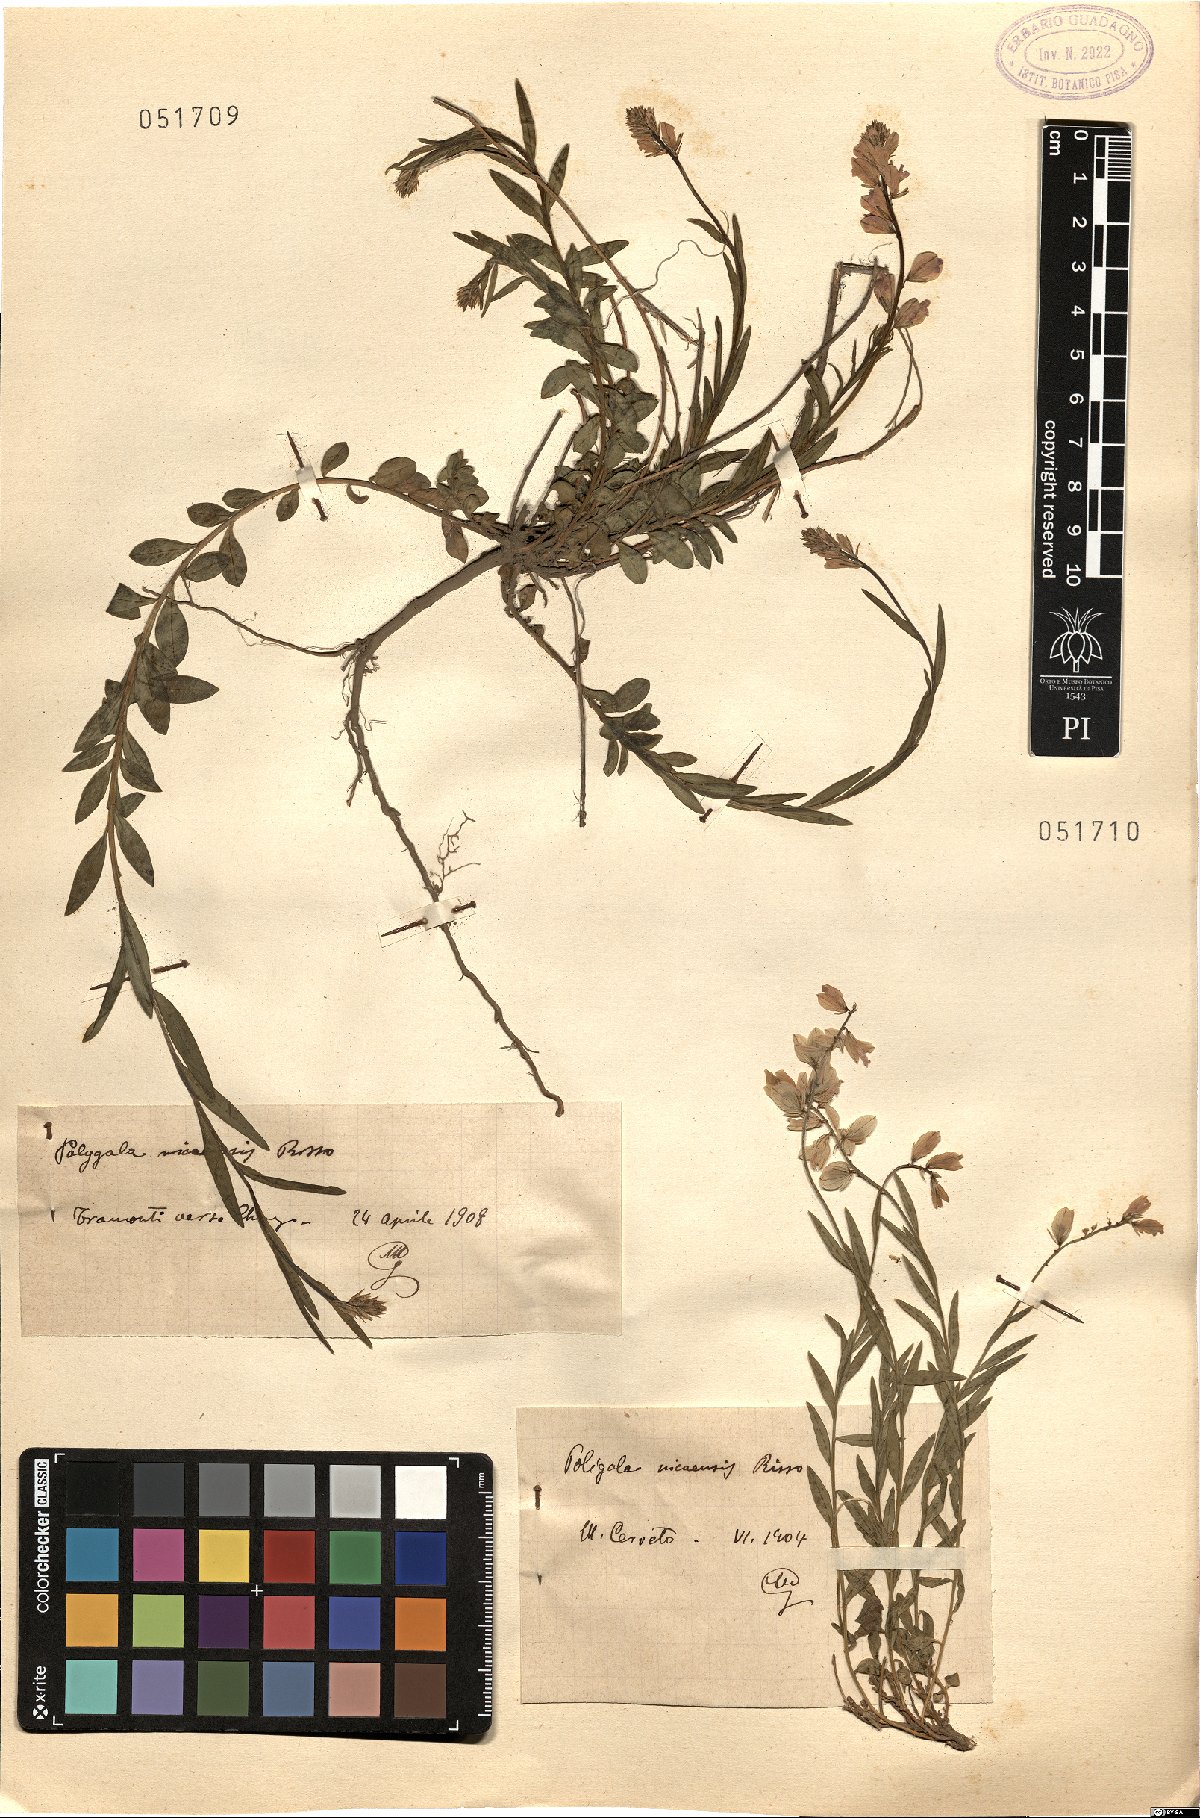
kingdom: Plantae
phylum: Tracheophyta
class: Magnoliopsida
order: Fabales
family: Polygalaceae
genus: Polygala
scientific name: Polygala nicaeensis
